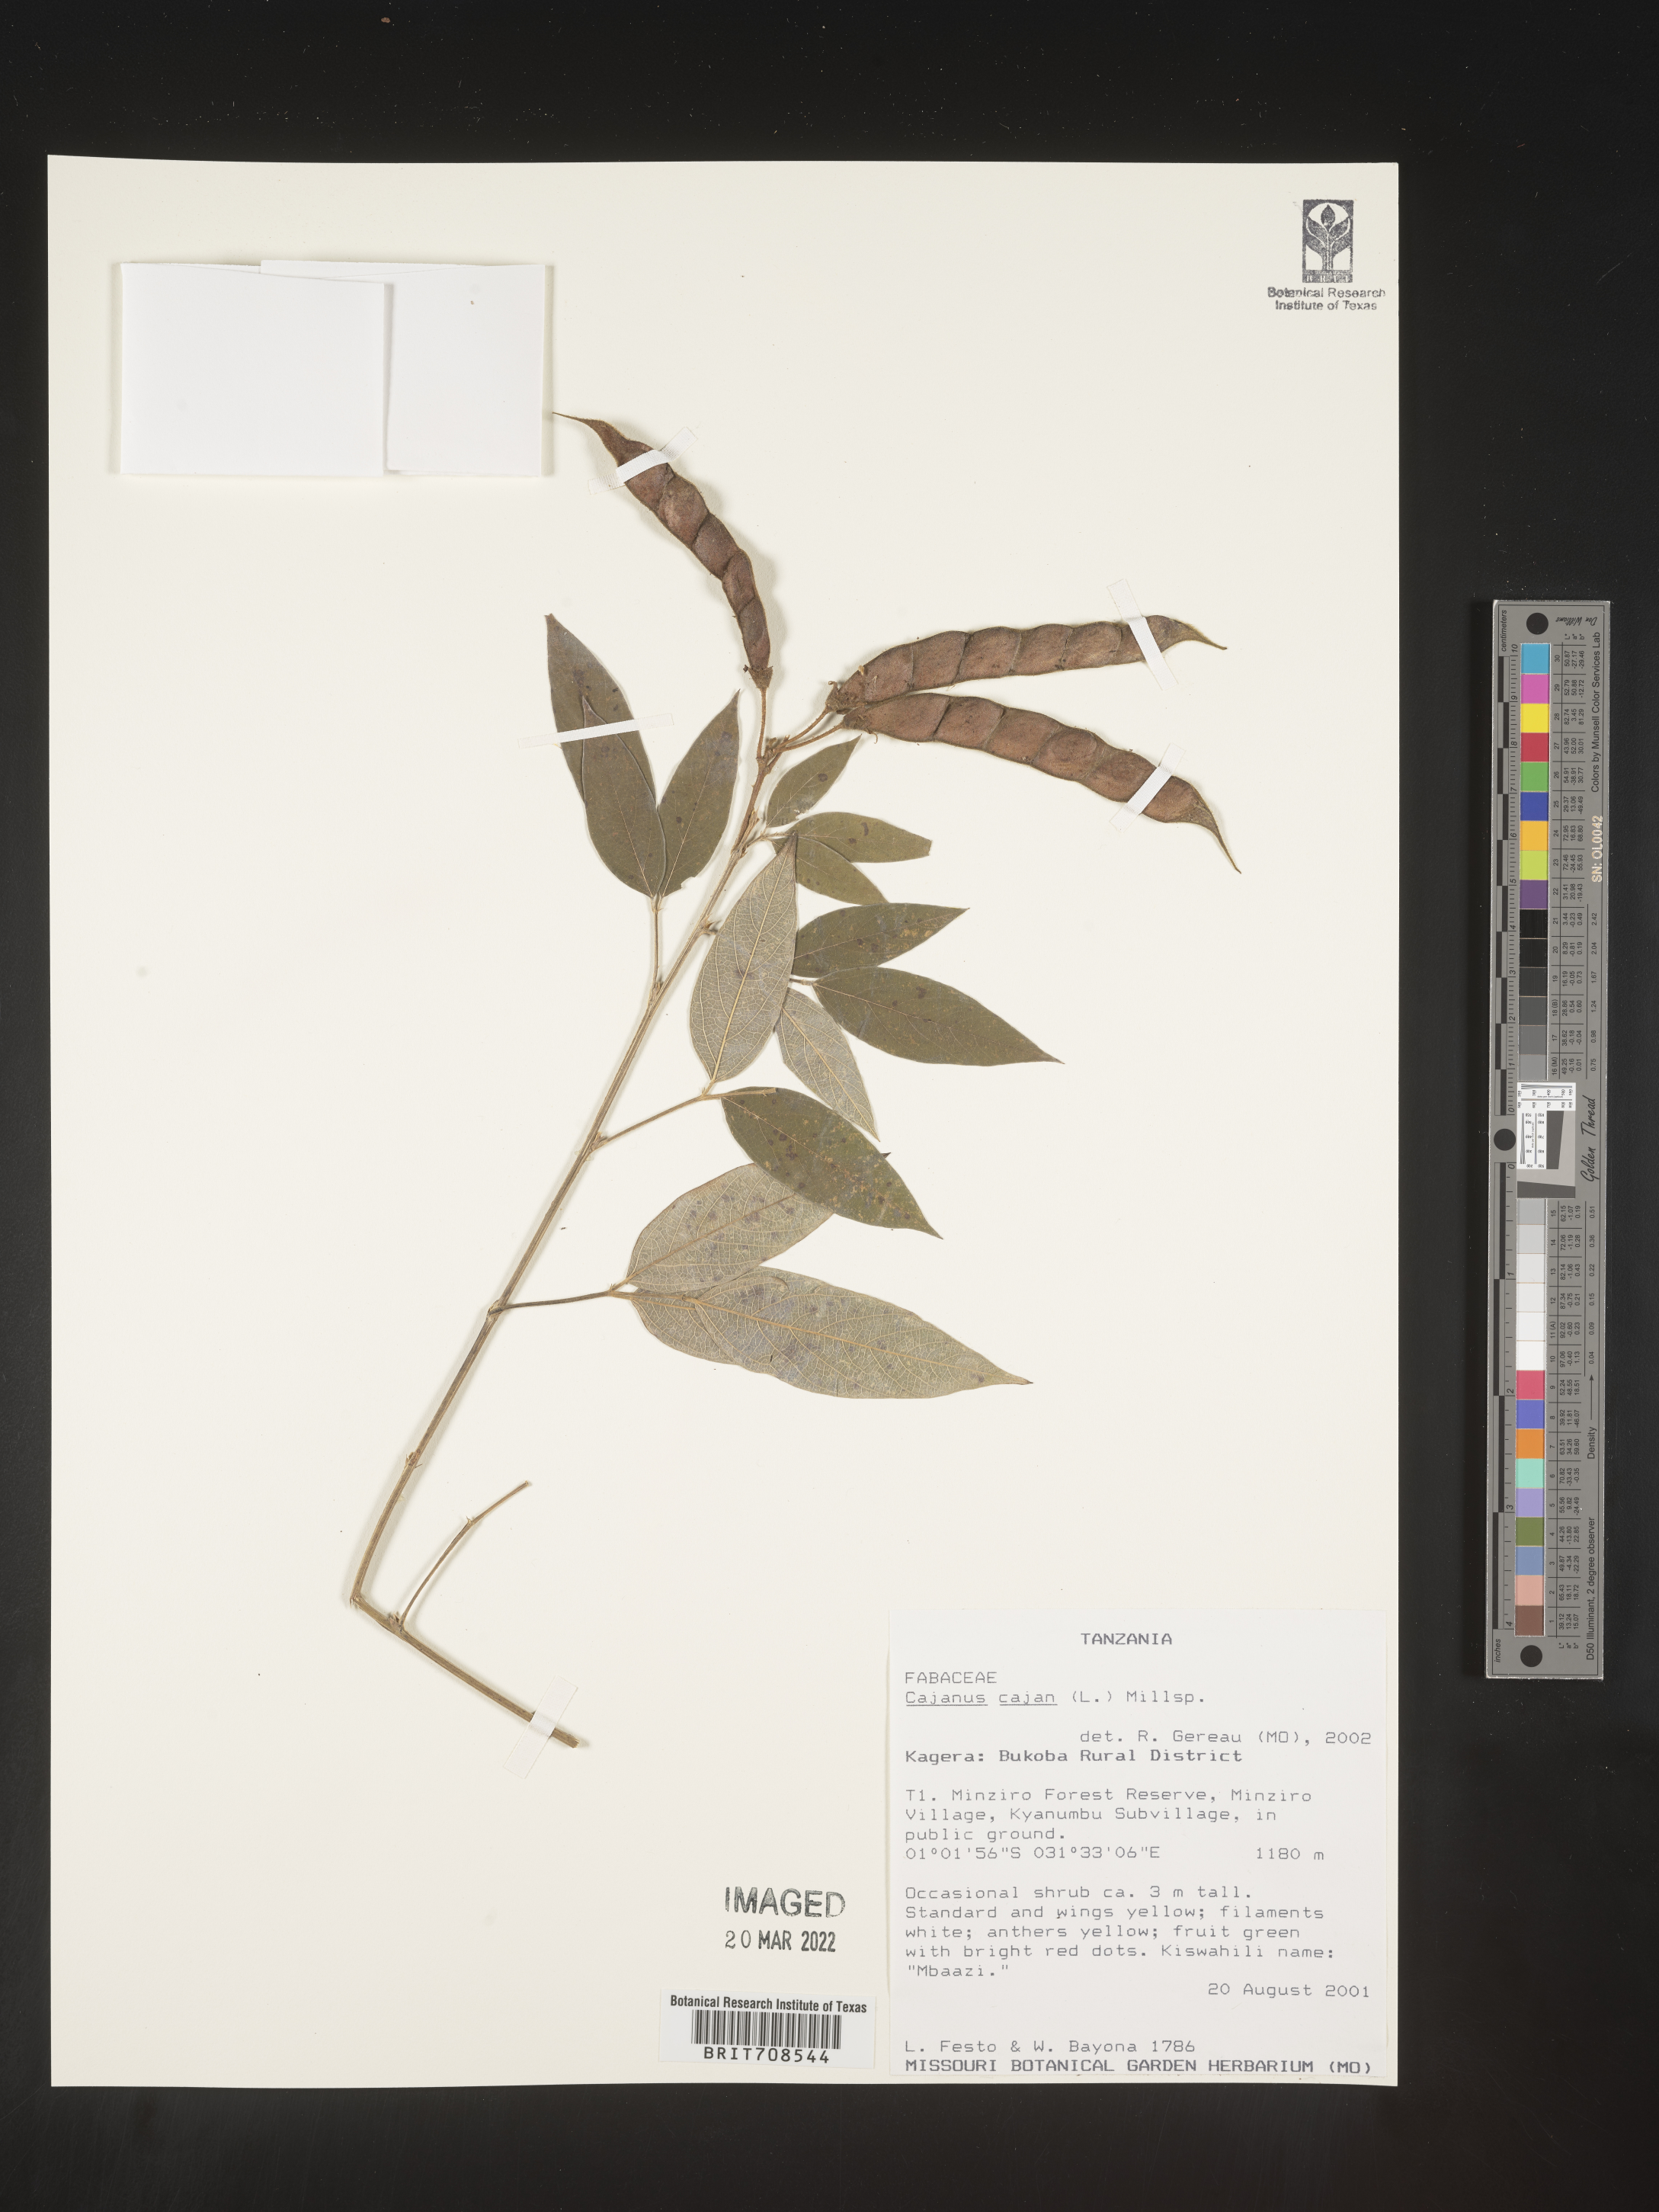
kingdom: Plantae
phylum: Tracheophyta
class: Magnoliopsida
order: Fabales
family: Fabaceae
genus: Cajanus
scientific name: Cajanus
